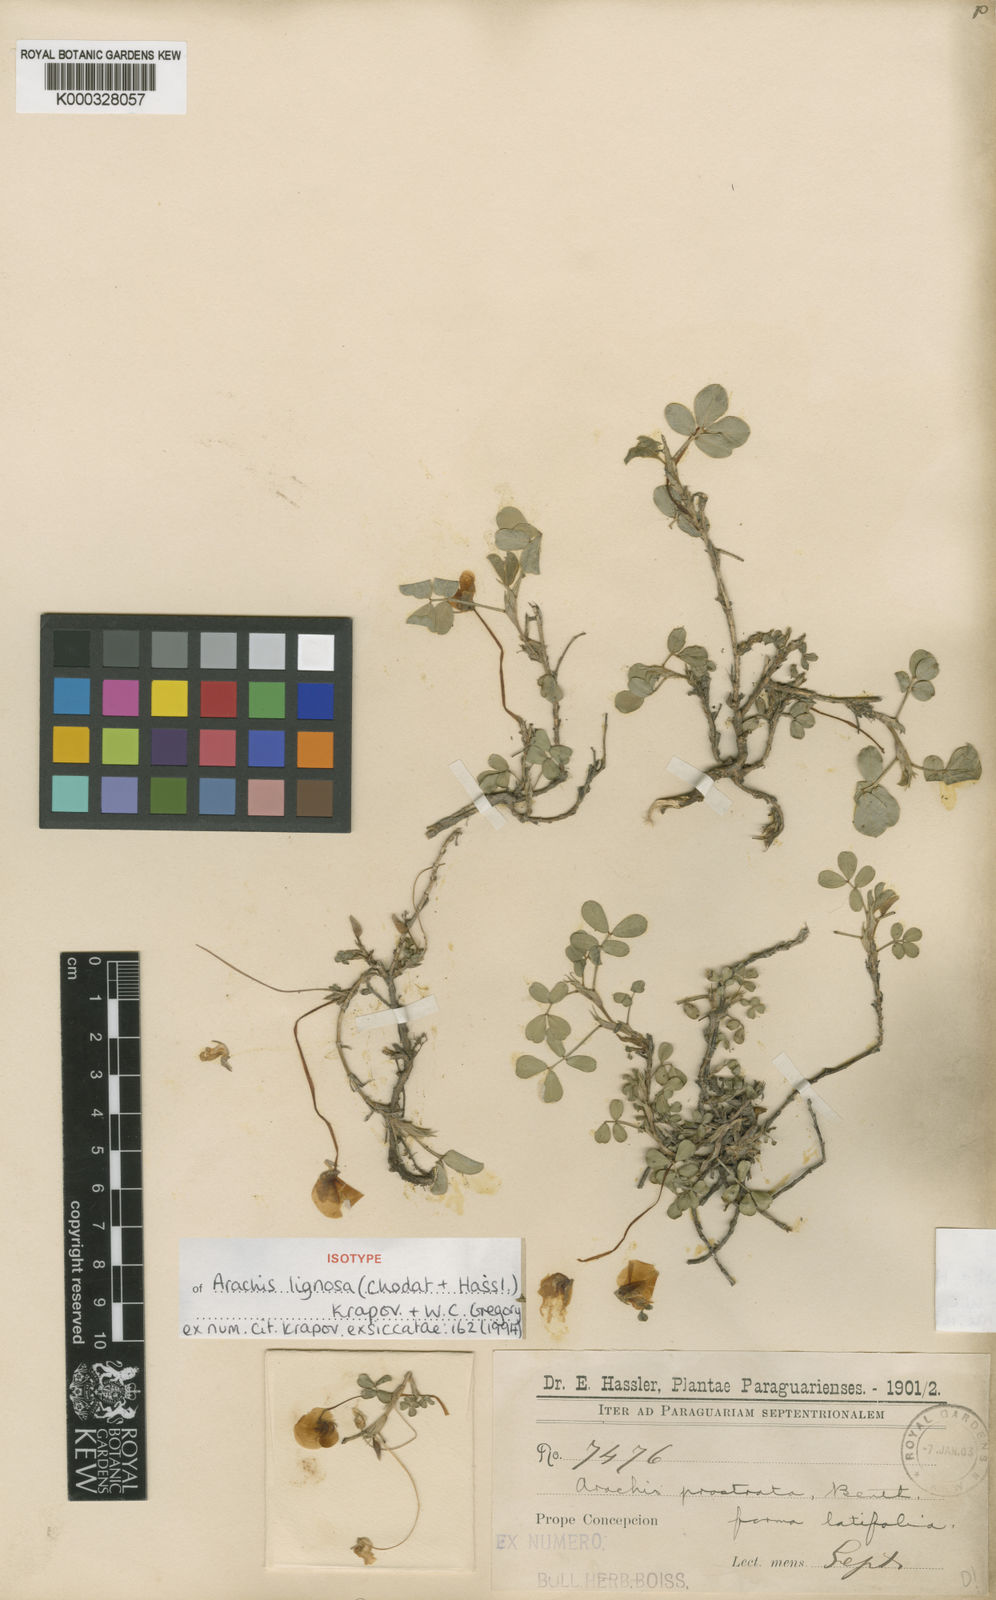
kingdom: Plantae
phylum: Tracheophyta
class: Magnoliopsida
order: Fabales
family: Fabaceae
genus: Arachis
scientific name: Arachis lignosa
